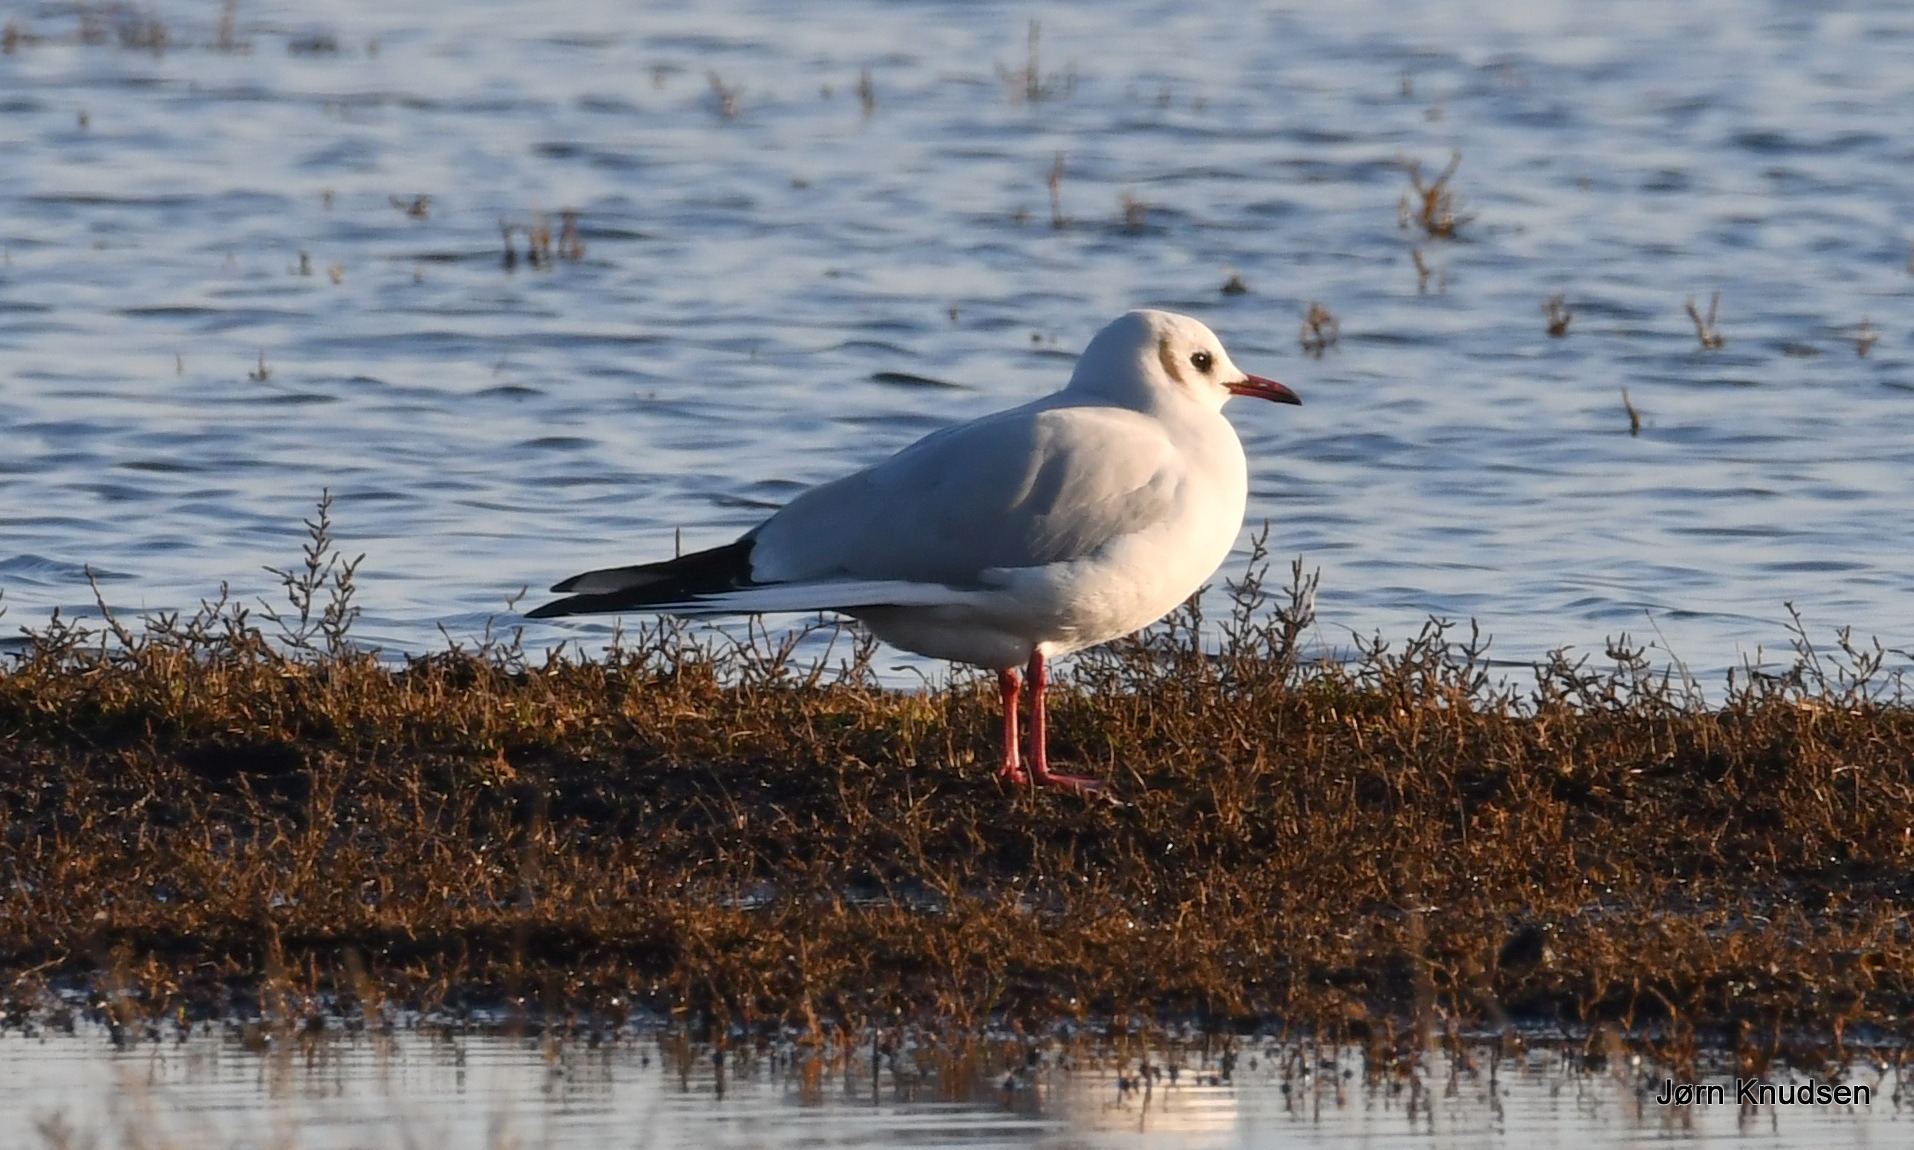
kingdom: Animalia
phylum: Chordata
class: Aves
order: Charadriiformes
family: Laridae
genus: Chroicocephalus
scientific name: Chroicocephalus ridibundus
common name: Hættemåge
